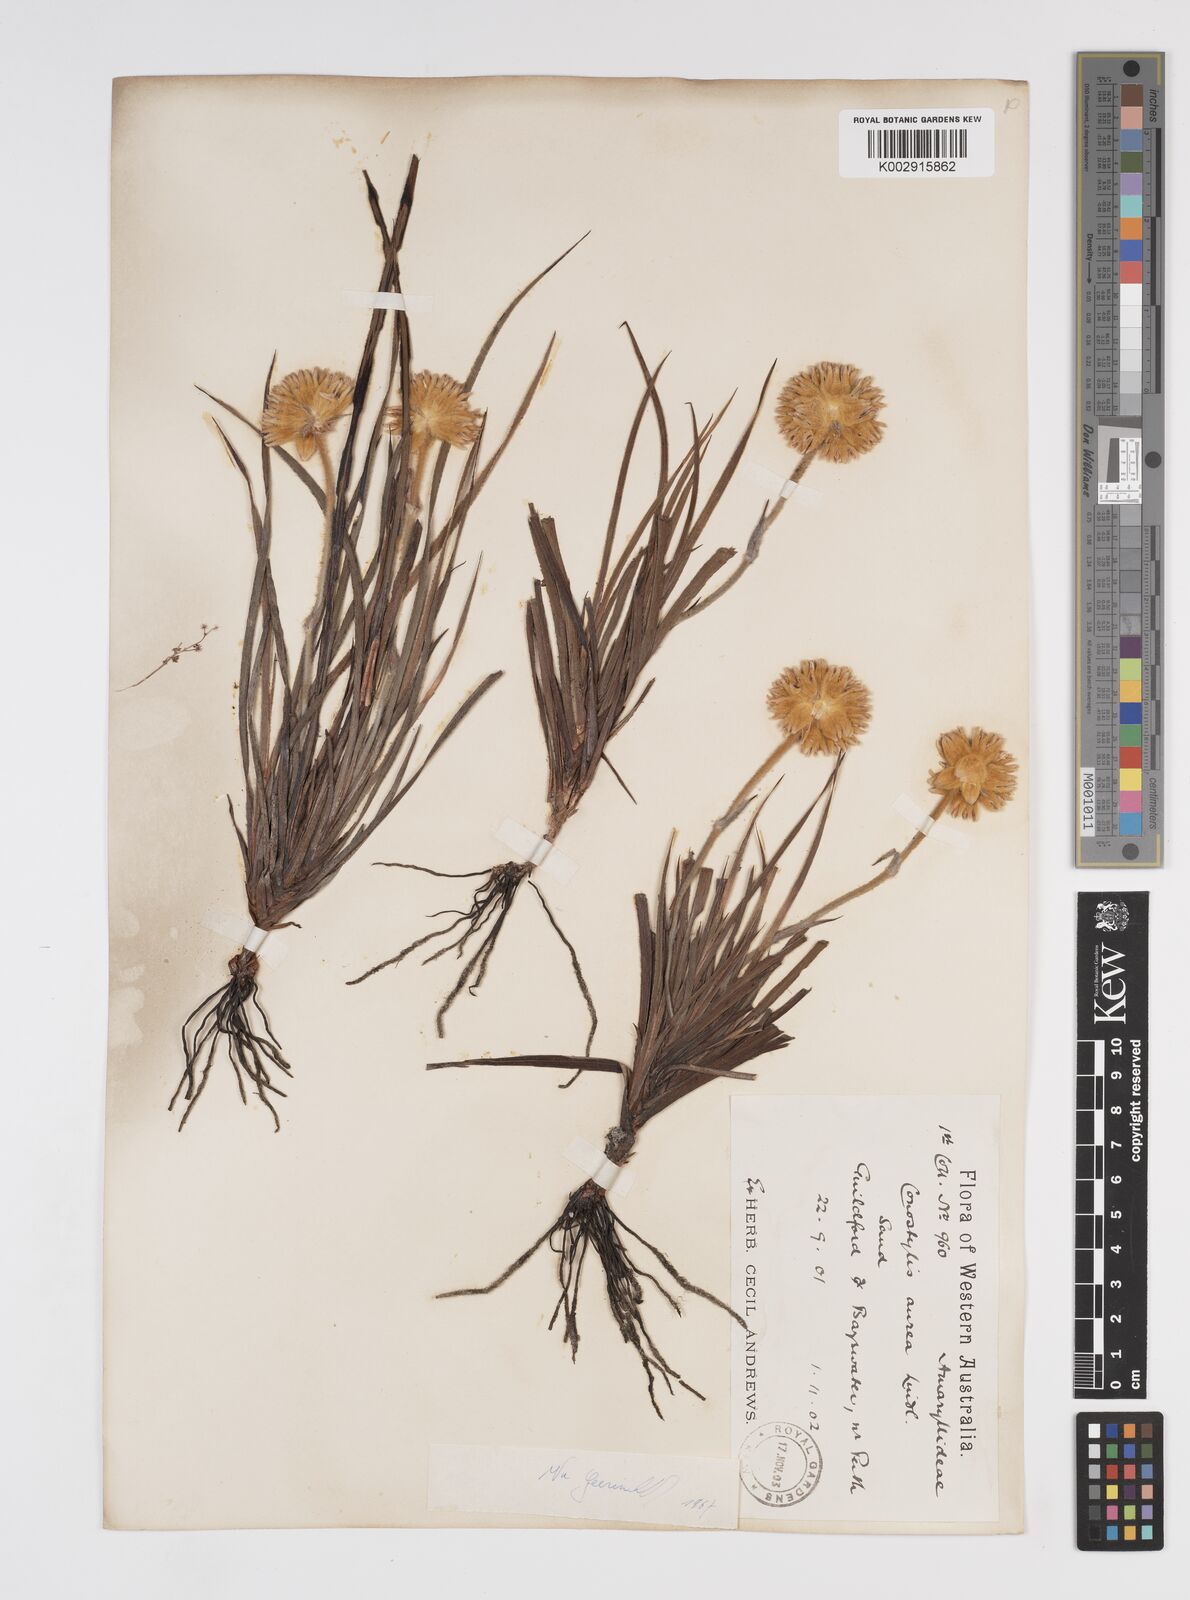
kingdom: Plantae
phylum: Tracheophyta
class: Liliopsida
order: Commelinales
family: Haemodoraceae
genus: Conostylis
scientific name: Conostylis aurea
